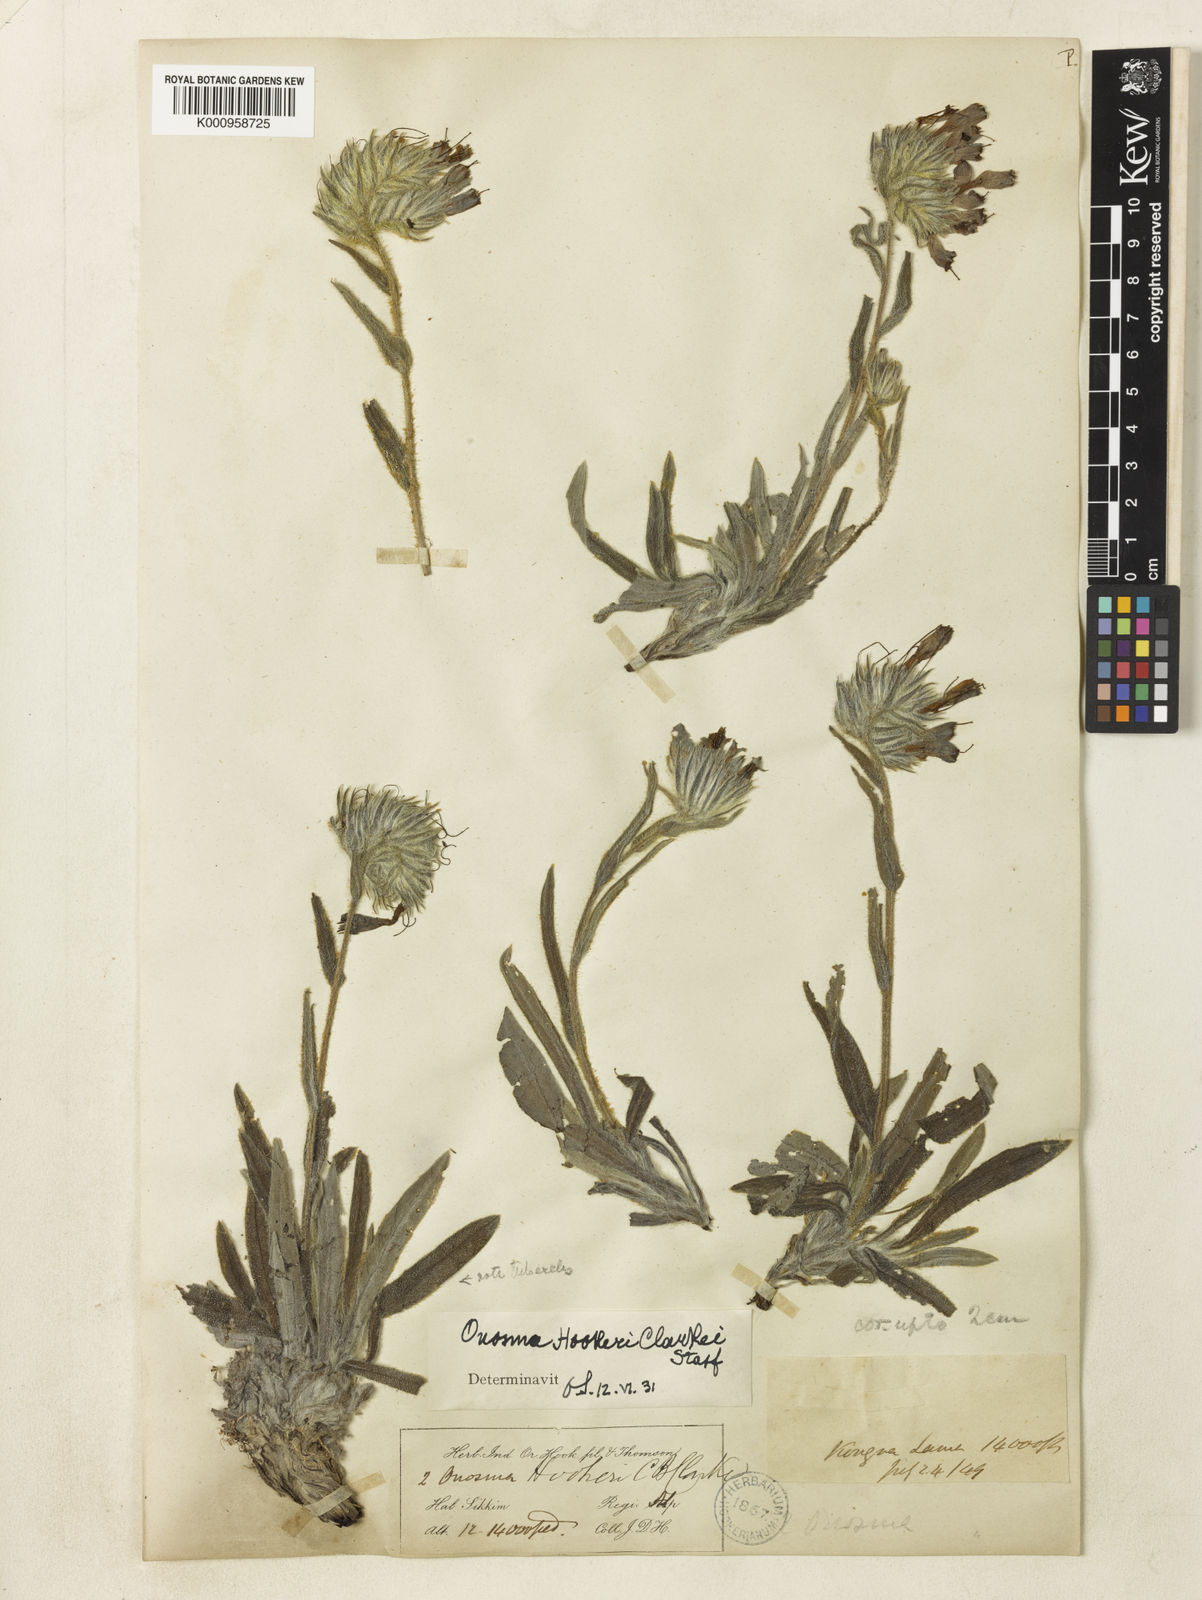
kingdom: Plantae
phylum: Tracheophyta
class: Magnoliopsida
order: Boraginales
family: Boraginaceae
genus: Maharanga
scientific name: Maharanga hookeri
